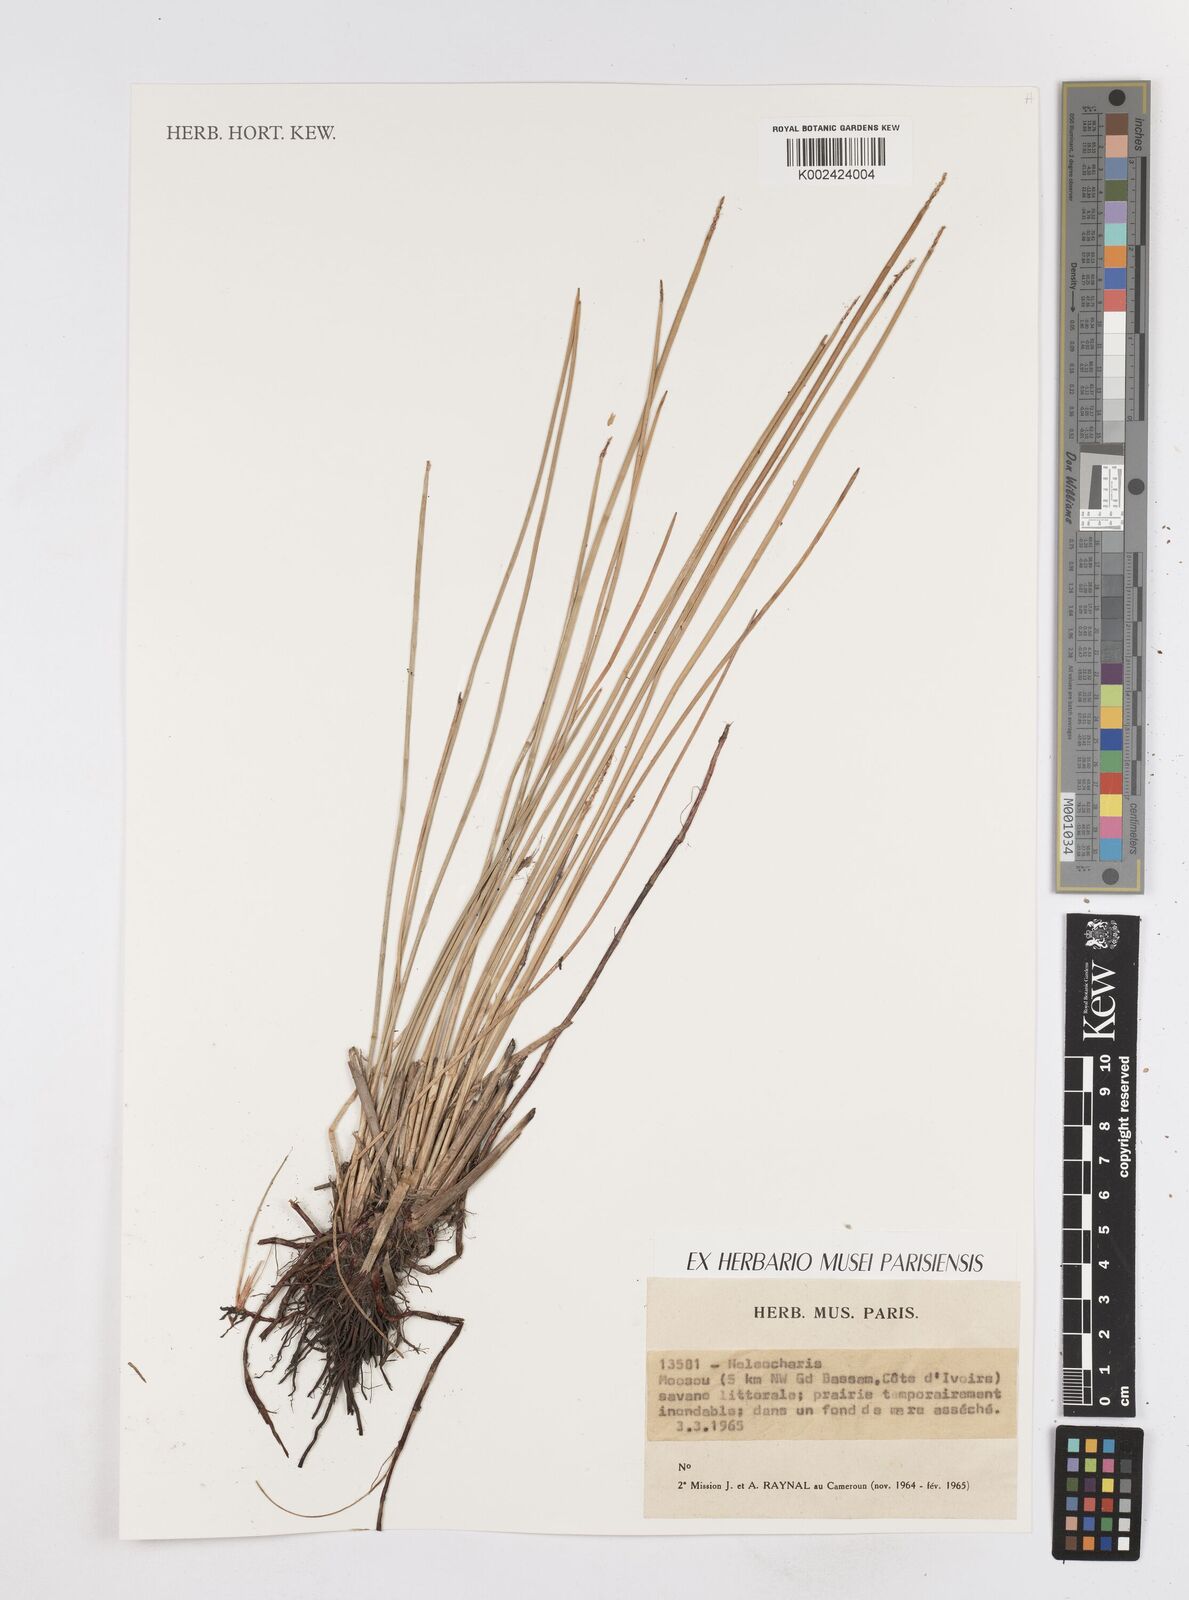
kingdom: Plantae
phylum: Tracheophyta
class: Liliopsida
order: Poales
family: Cyperaceae
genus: Eleocharis
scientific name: Eleocharis
